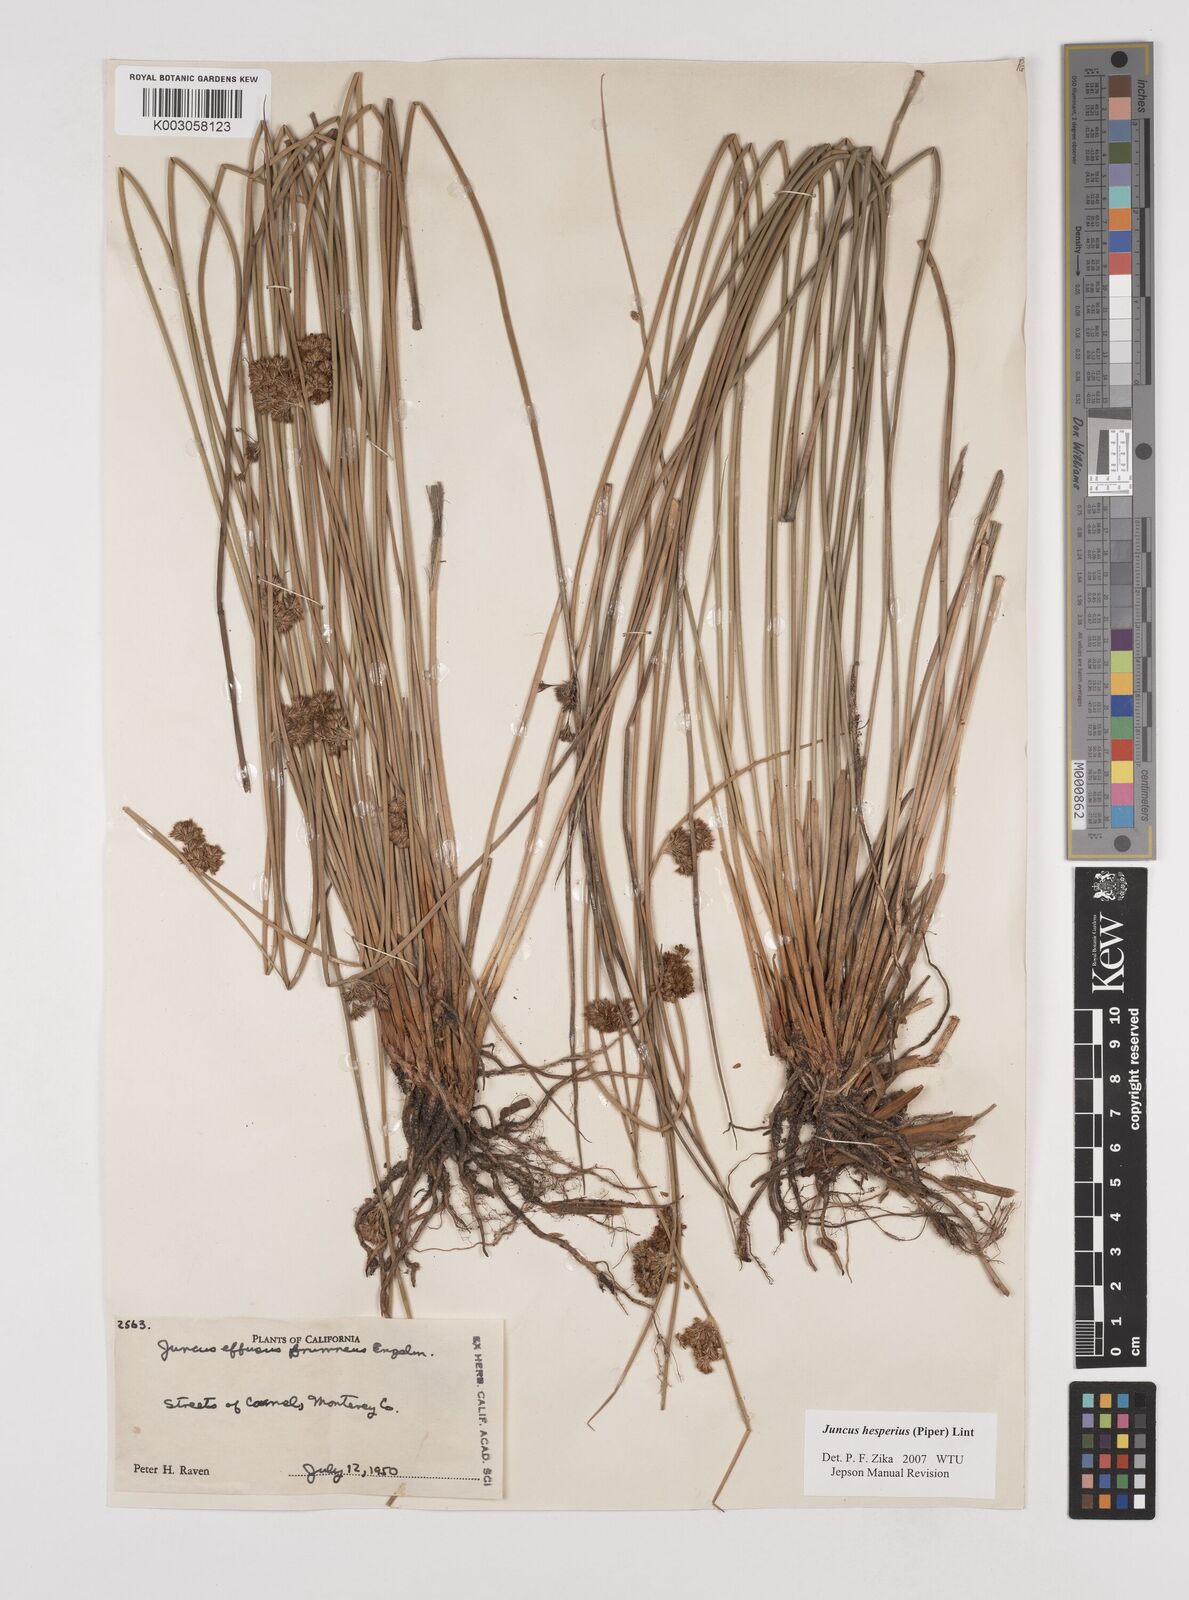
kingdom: Plantae
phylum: Tracheophyta
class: Liliopsida
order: Poales
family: Juncaceae
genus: Juncus
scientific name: Juncus hesperius
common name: Coast rush
